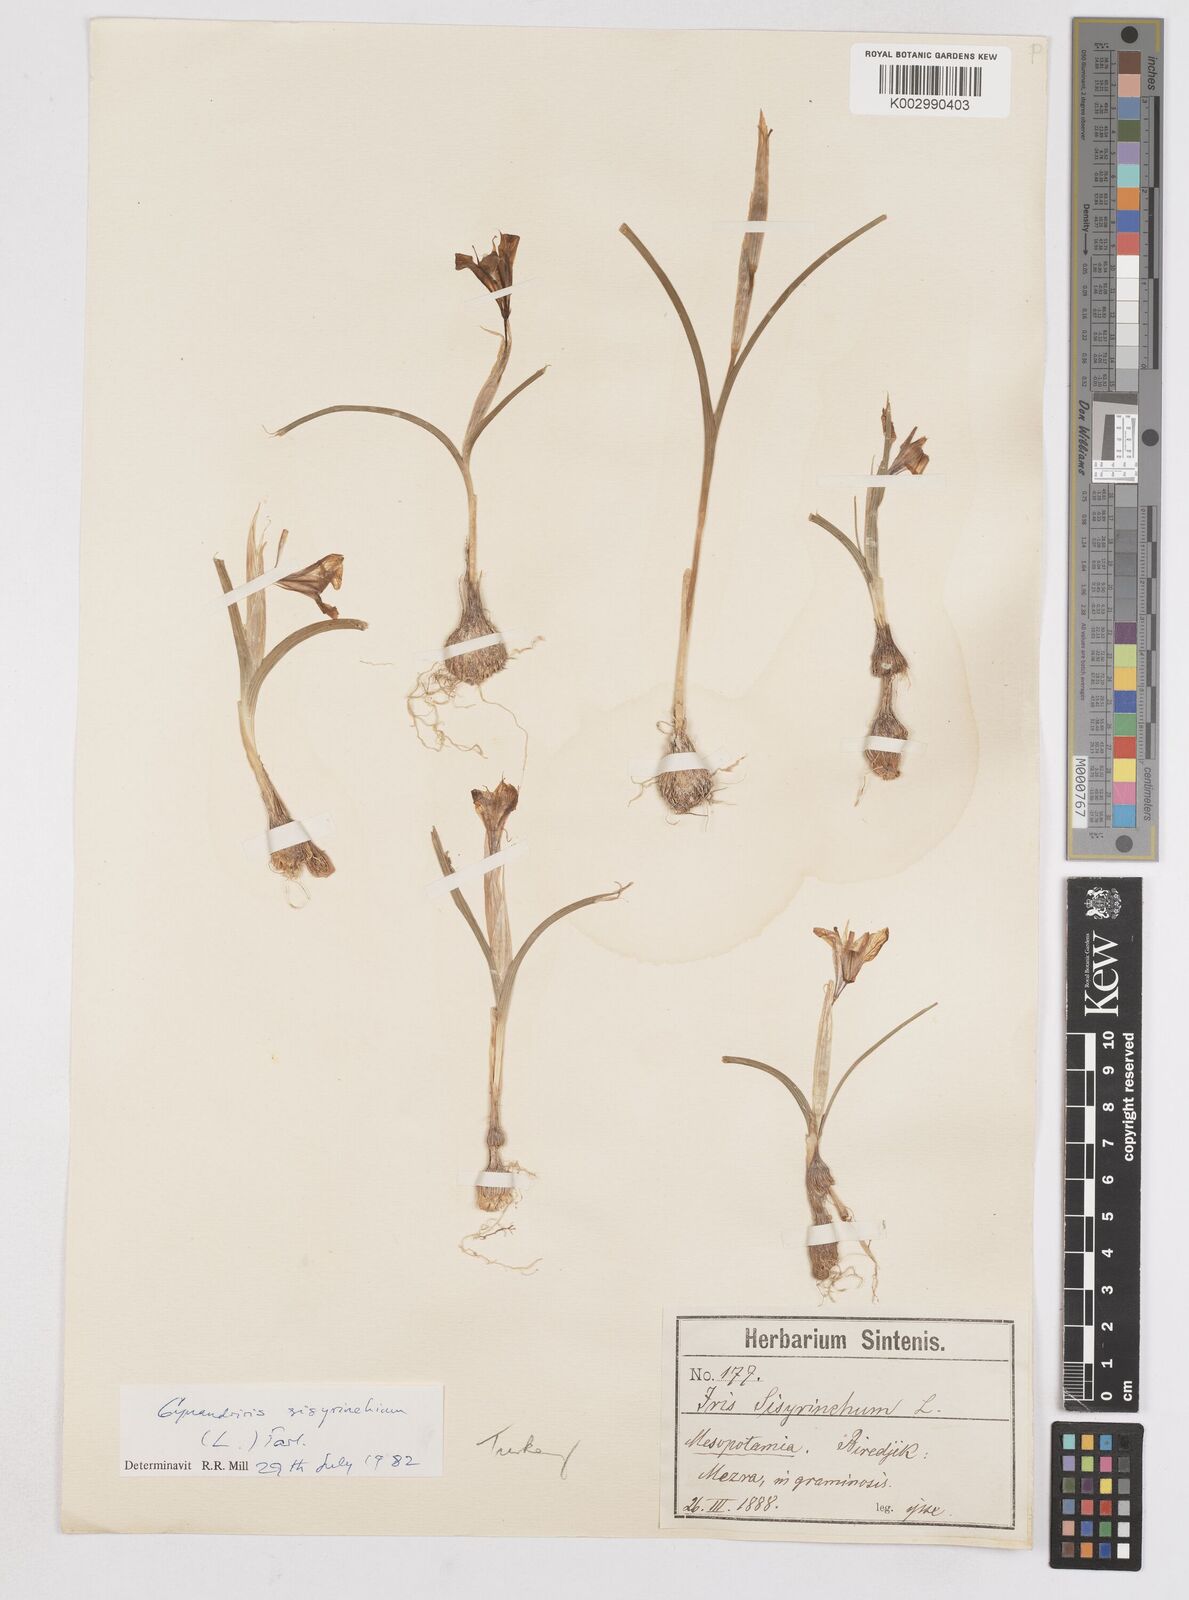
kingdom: Plantae
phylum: Tracheophyta
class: Liliopsida
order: Asparagales
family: Iridaceae
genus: Moraea
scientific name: Moraea sisyrinchium
